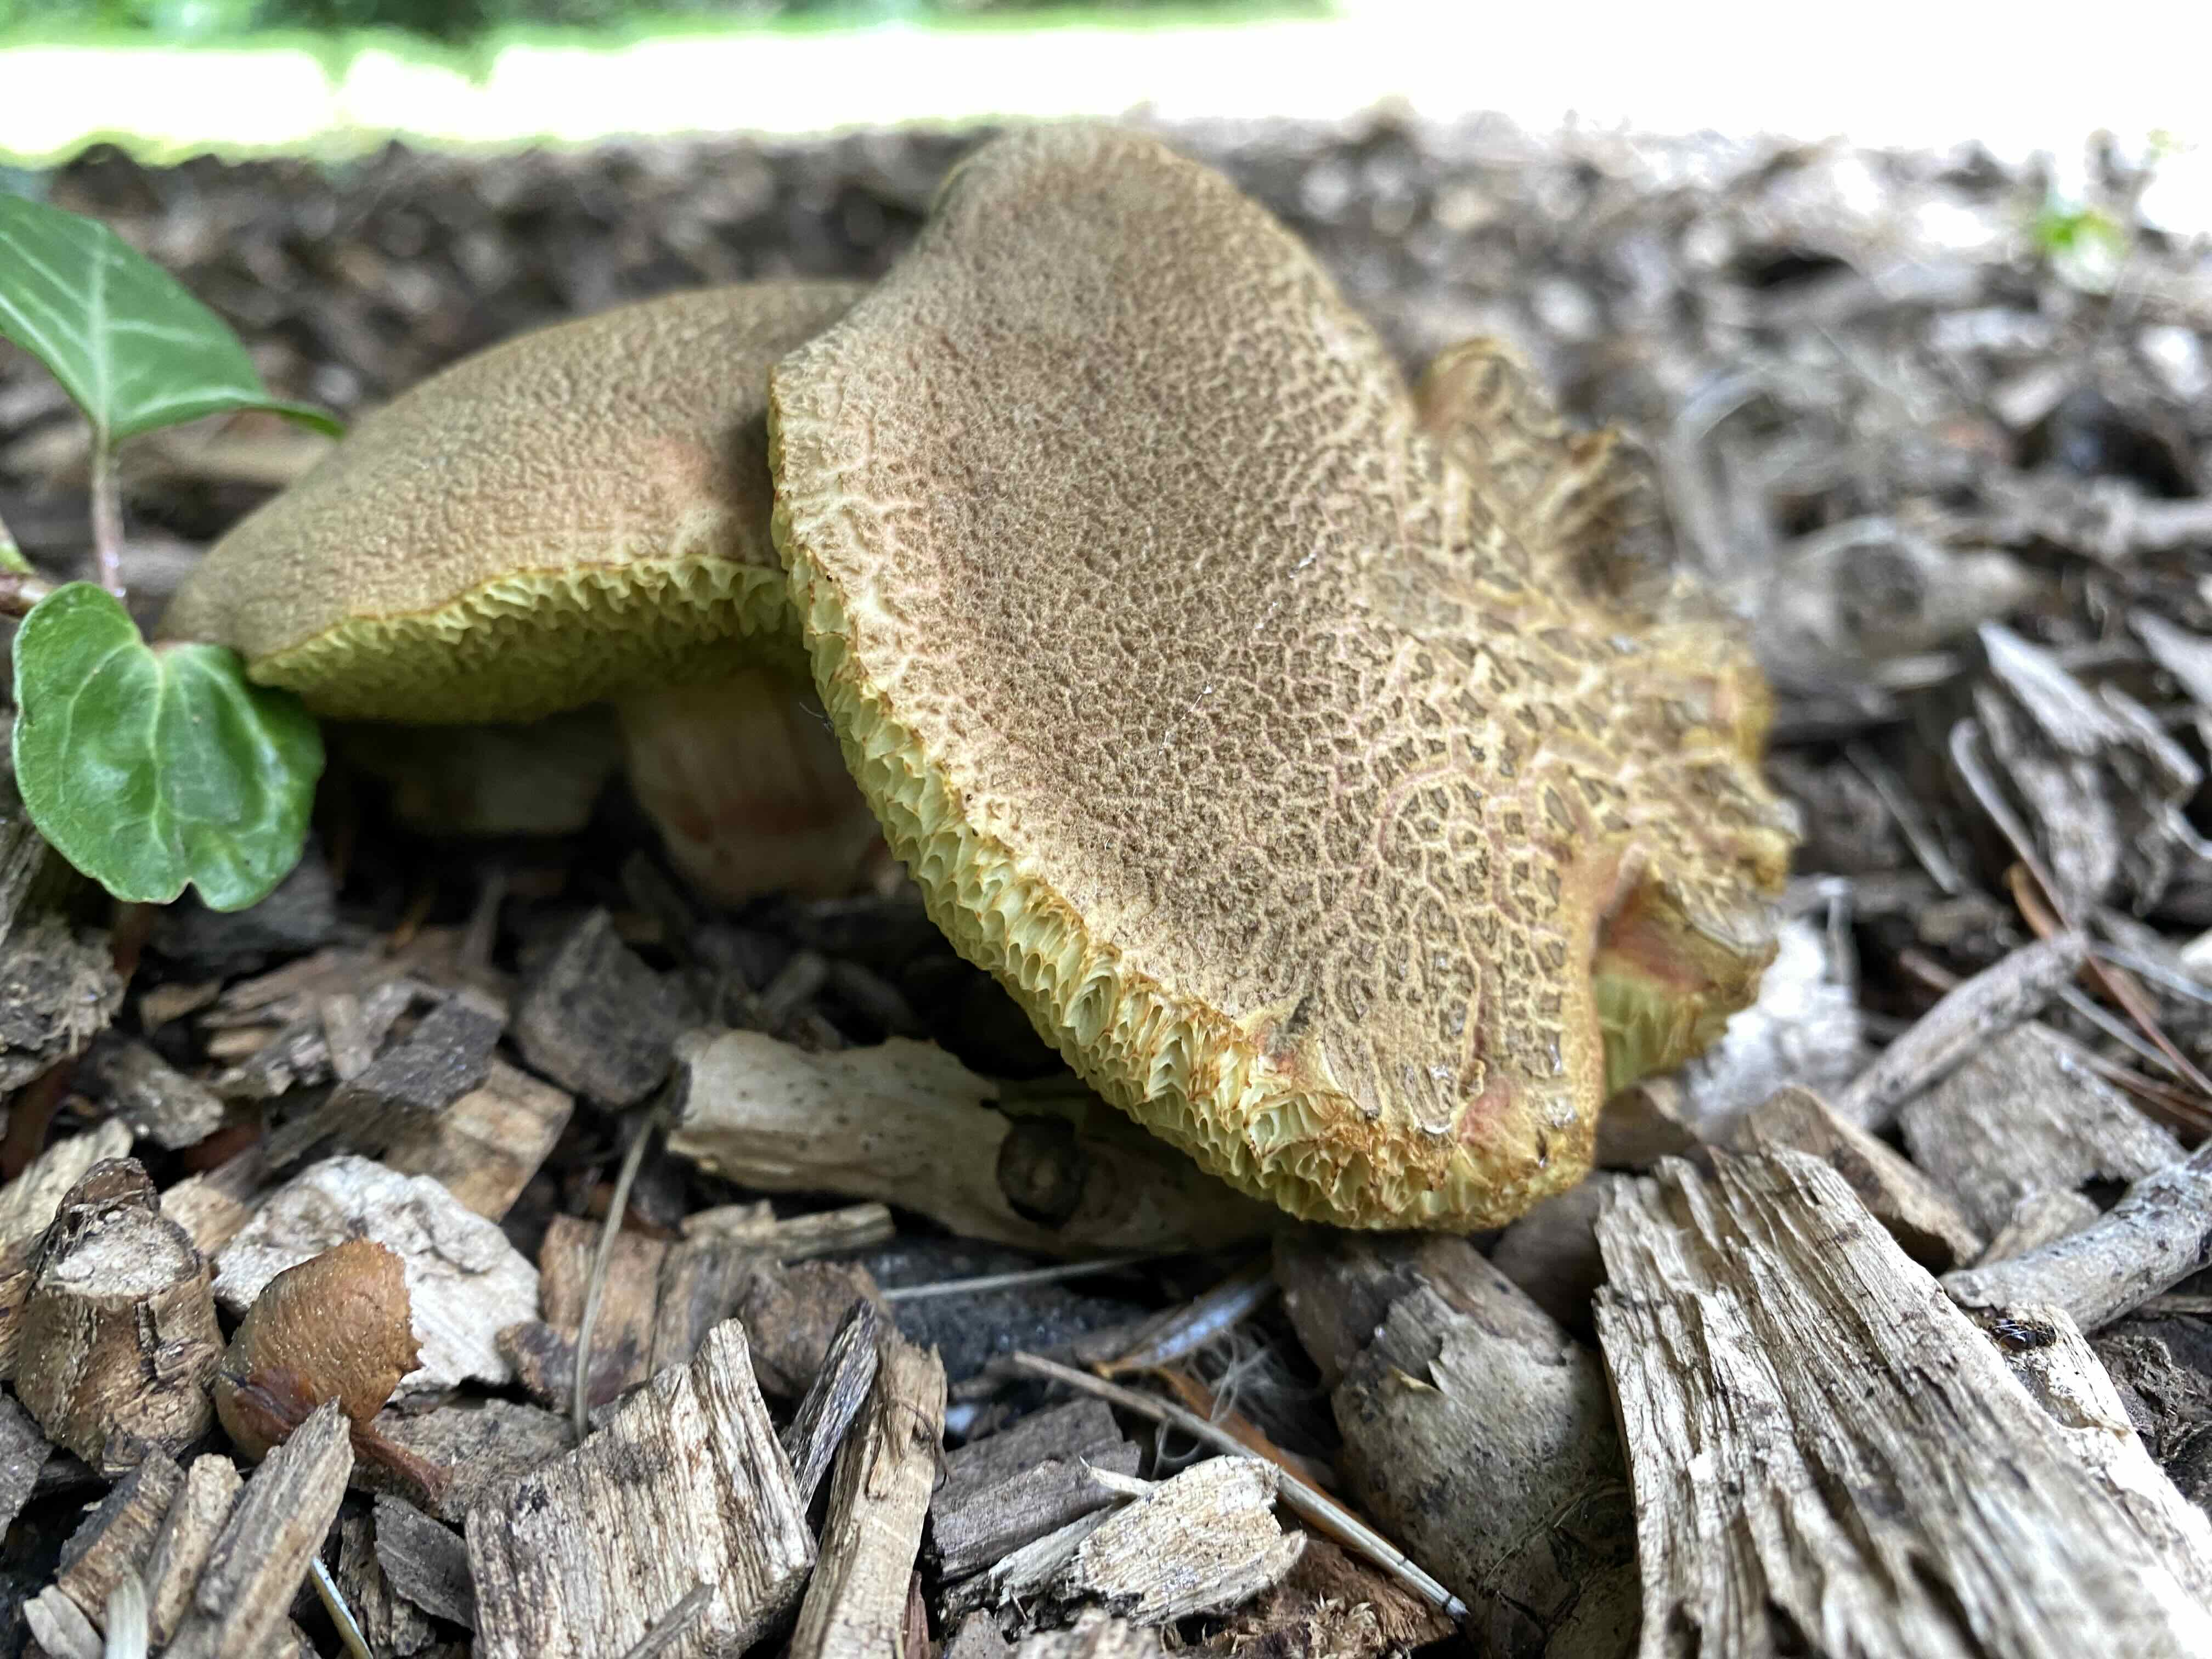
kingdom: Fungi
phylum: Basidiomycota
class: Agaricomycetes
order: Boletales
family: Boletaceae
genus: Xerocomellus
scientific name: Xerocomellus
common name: dværgrørhat
